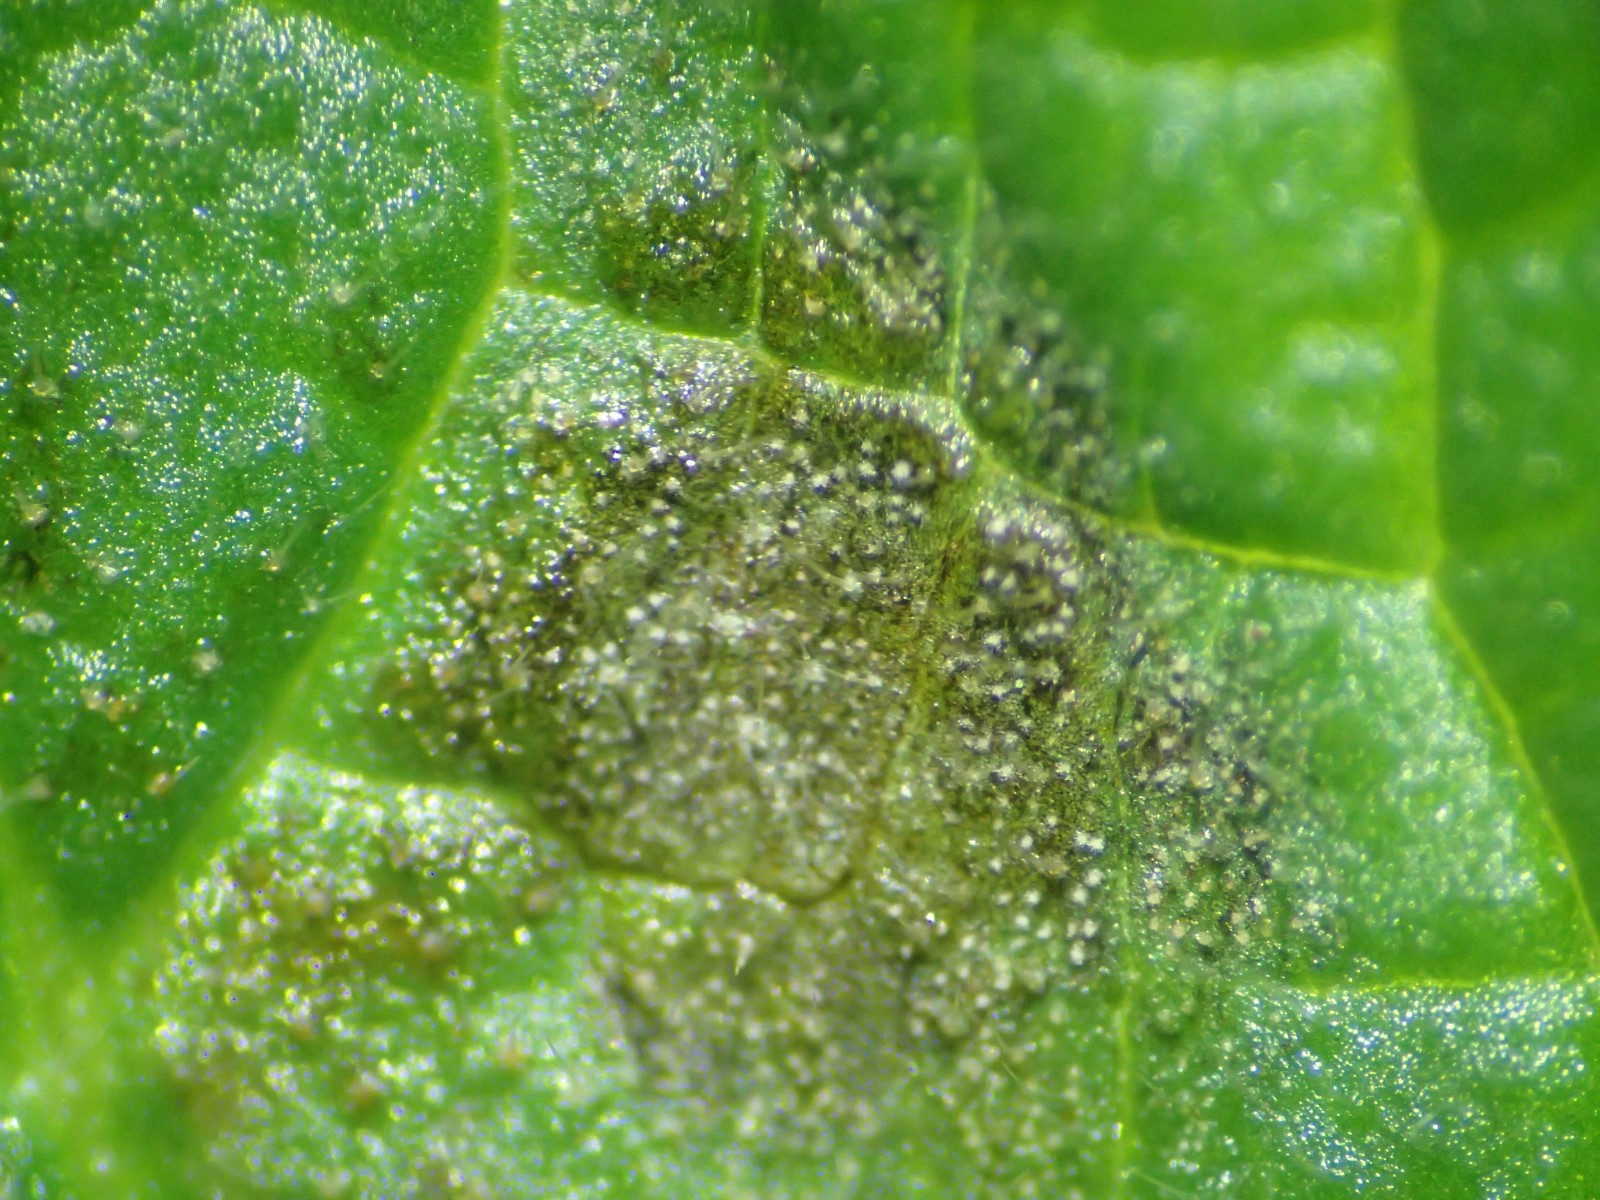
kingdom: Fungi
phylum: Ascomycota
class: Dothideomycetes
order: Mycosphaerellales
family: Mycosphaerellaceae
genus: Ramularia
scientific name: Ramularia lamii
